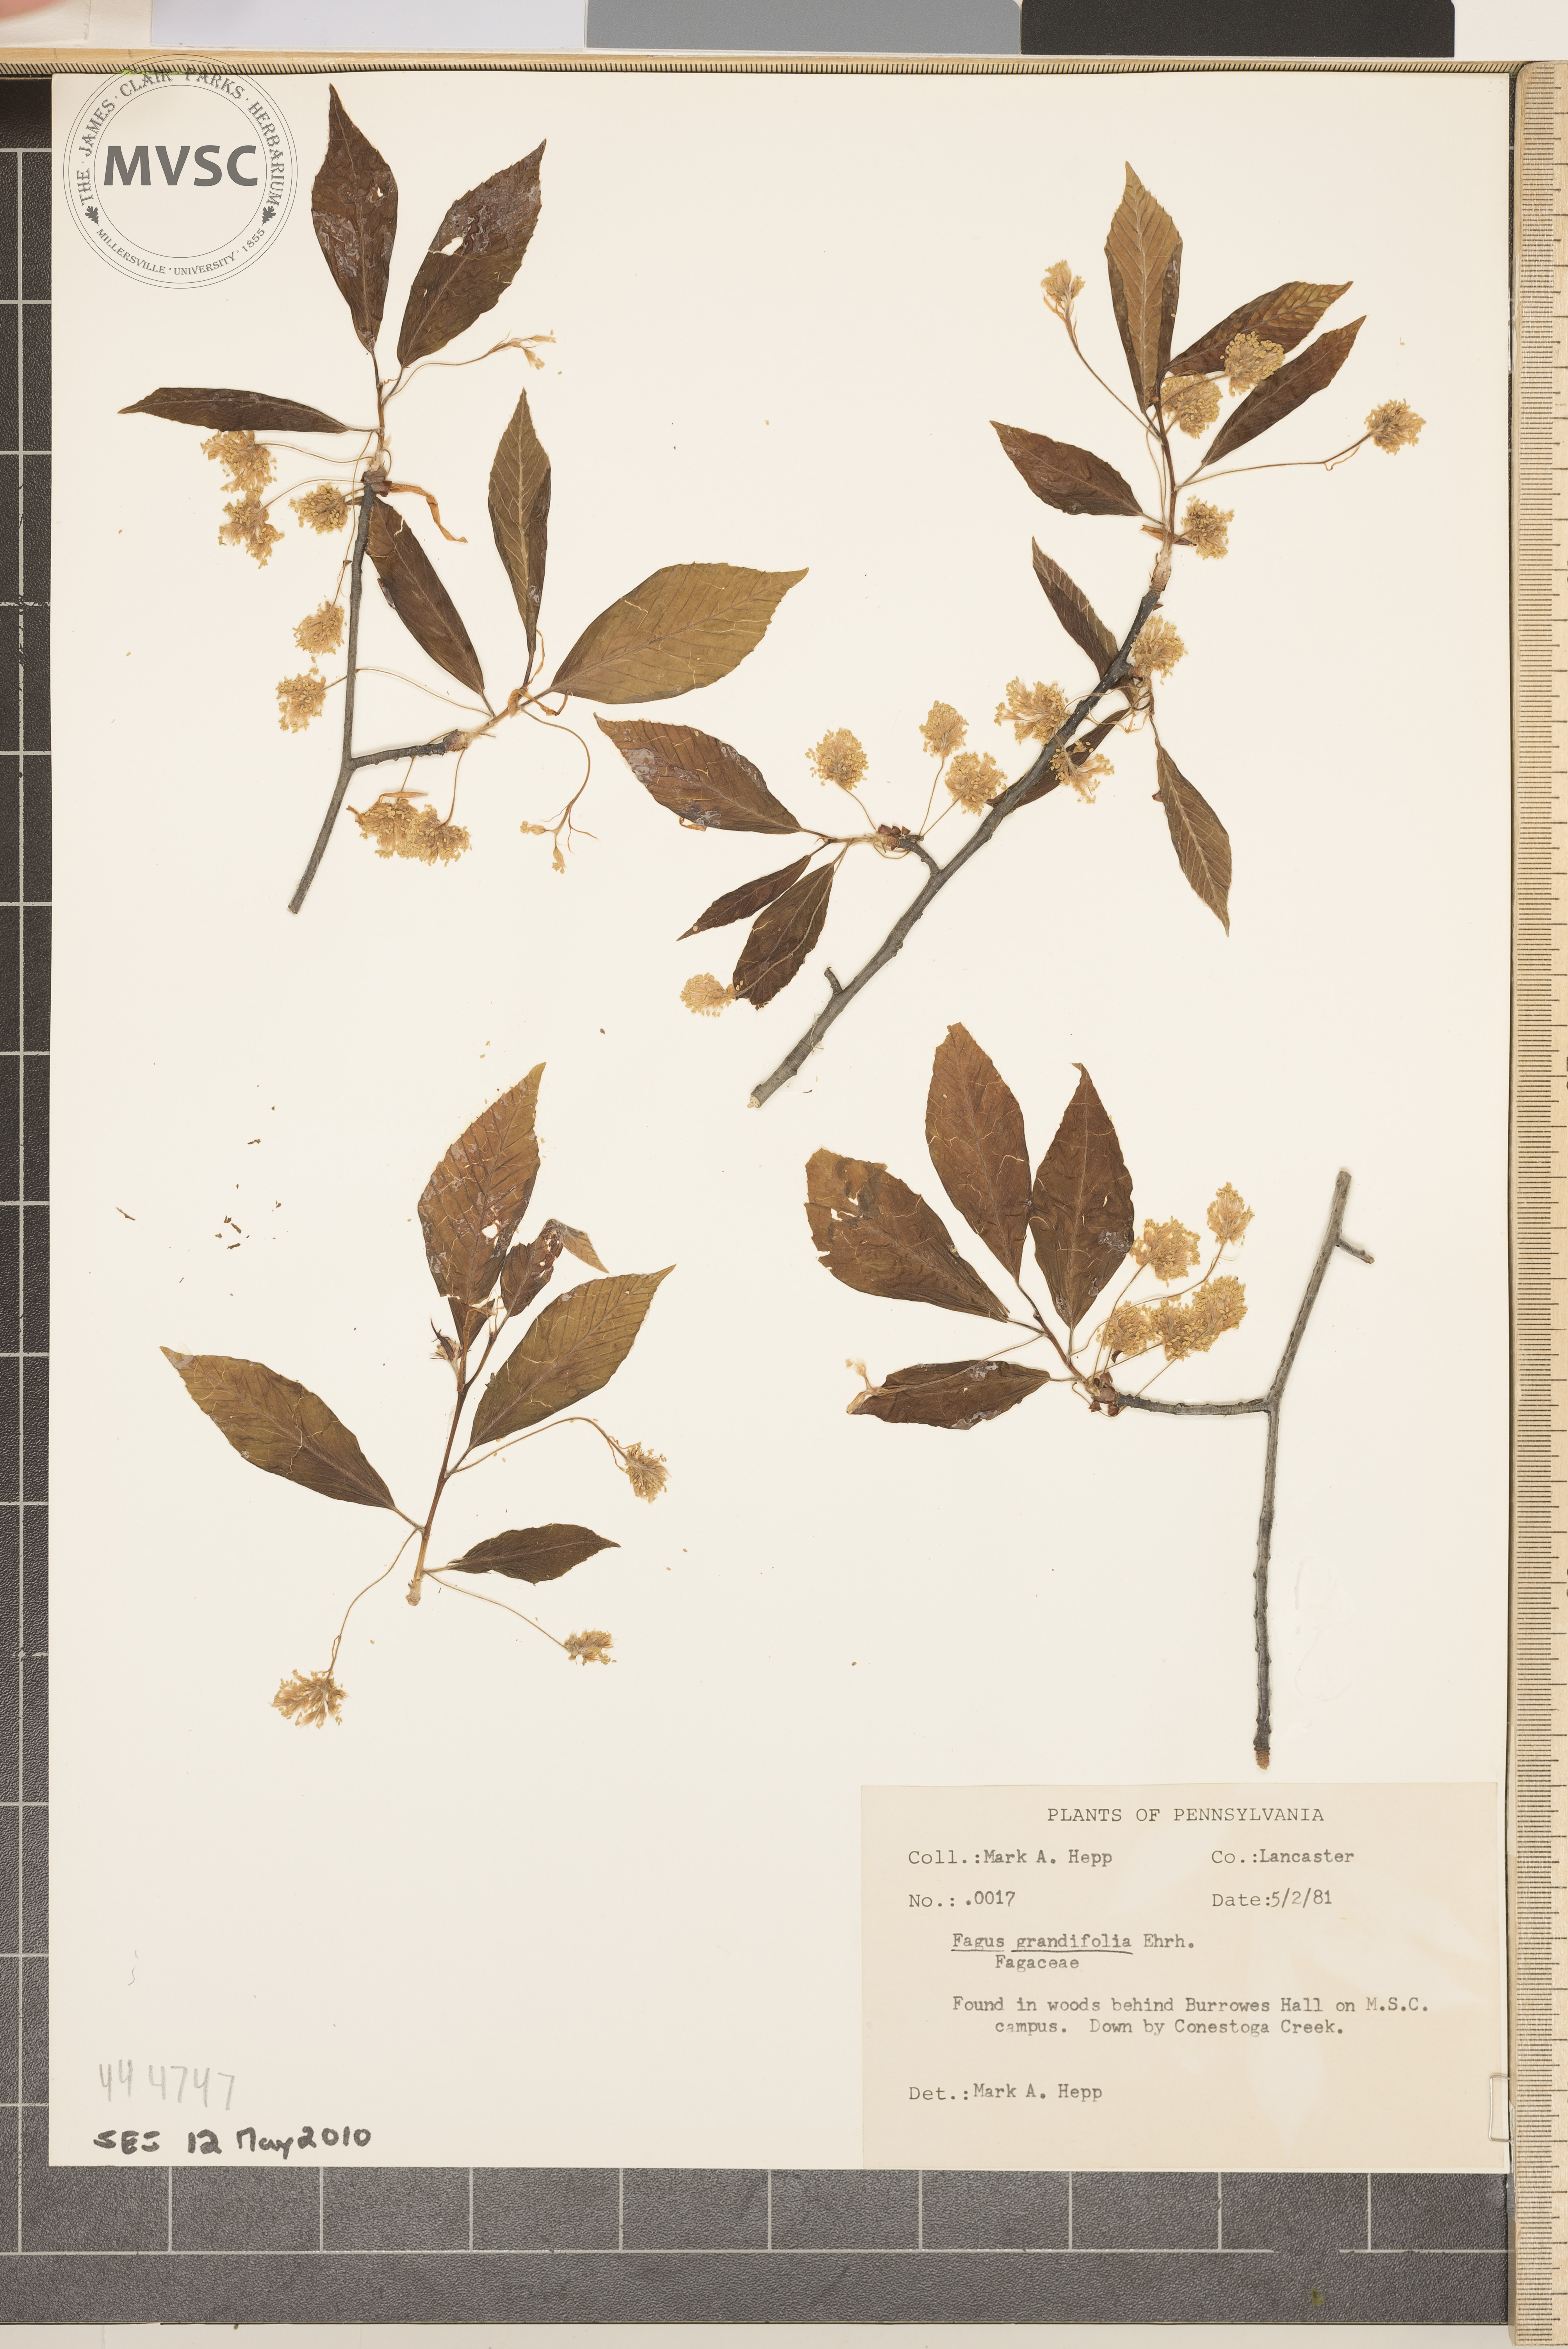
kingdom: Plantae
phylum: Tracheophyta
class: Magnoliopsida
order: Fagales
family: Fagaceae
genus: Fagus
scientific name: Fagus grandifolia
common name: American beech
